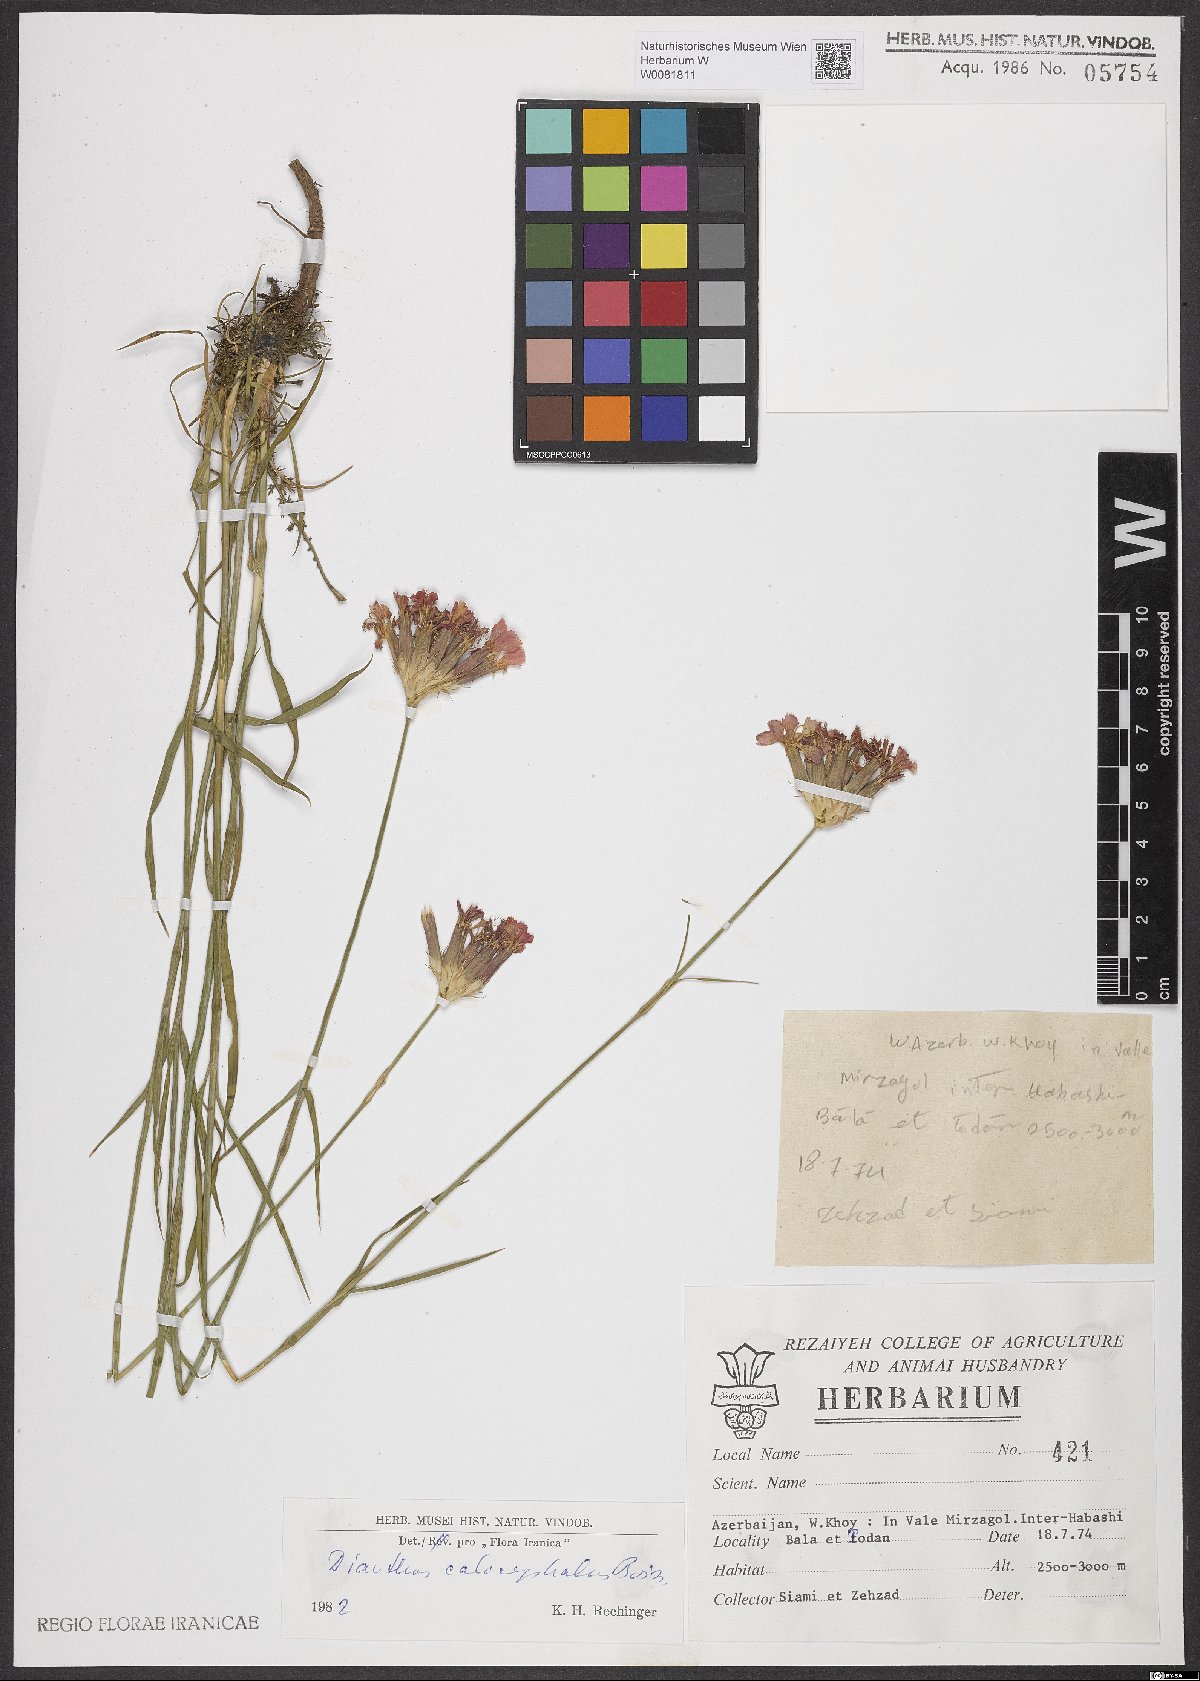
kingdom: Plantae
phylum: Tracheophyta
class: Magnoliopsida
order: Caryophyllales
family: Caryophyllaceae
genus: Dianthus
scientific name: Dianthus cruentus
